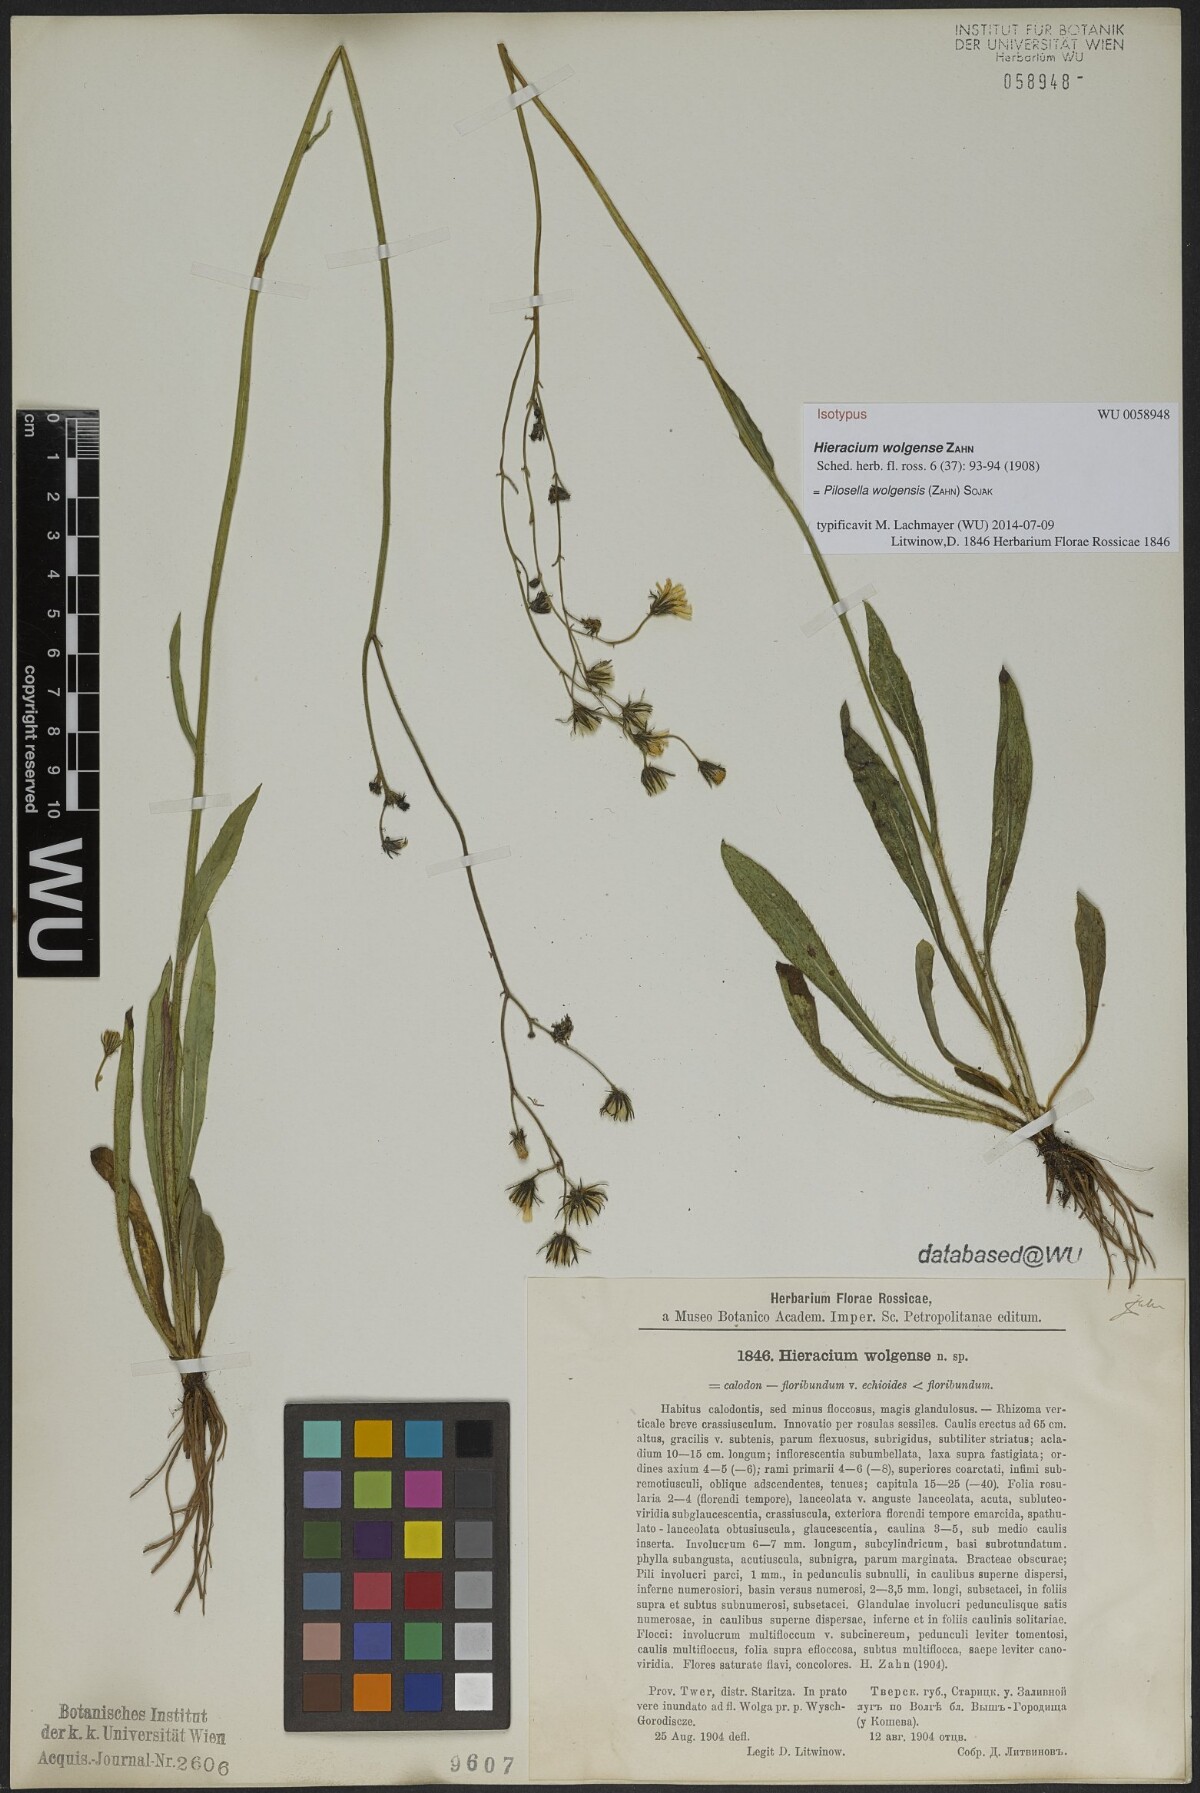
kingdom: Plantae
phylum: Tracheophyta
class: Magnoliopsida
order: Asterales
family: Asteraceae
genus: Pilosella
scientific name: Pilosella wolgensis
